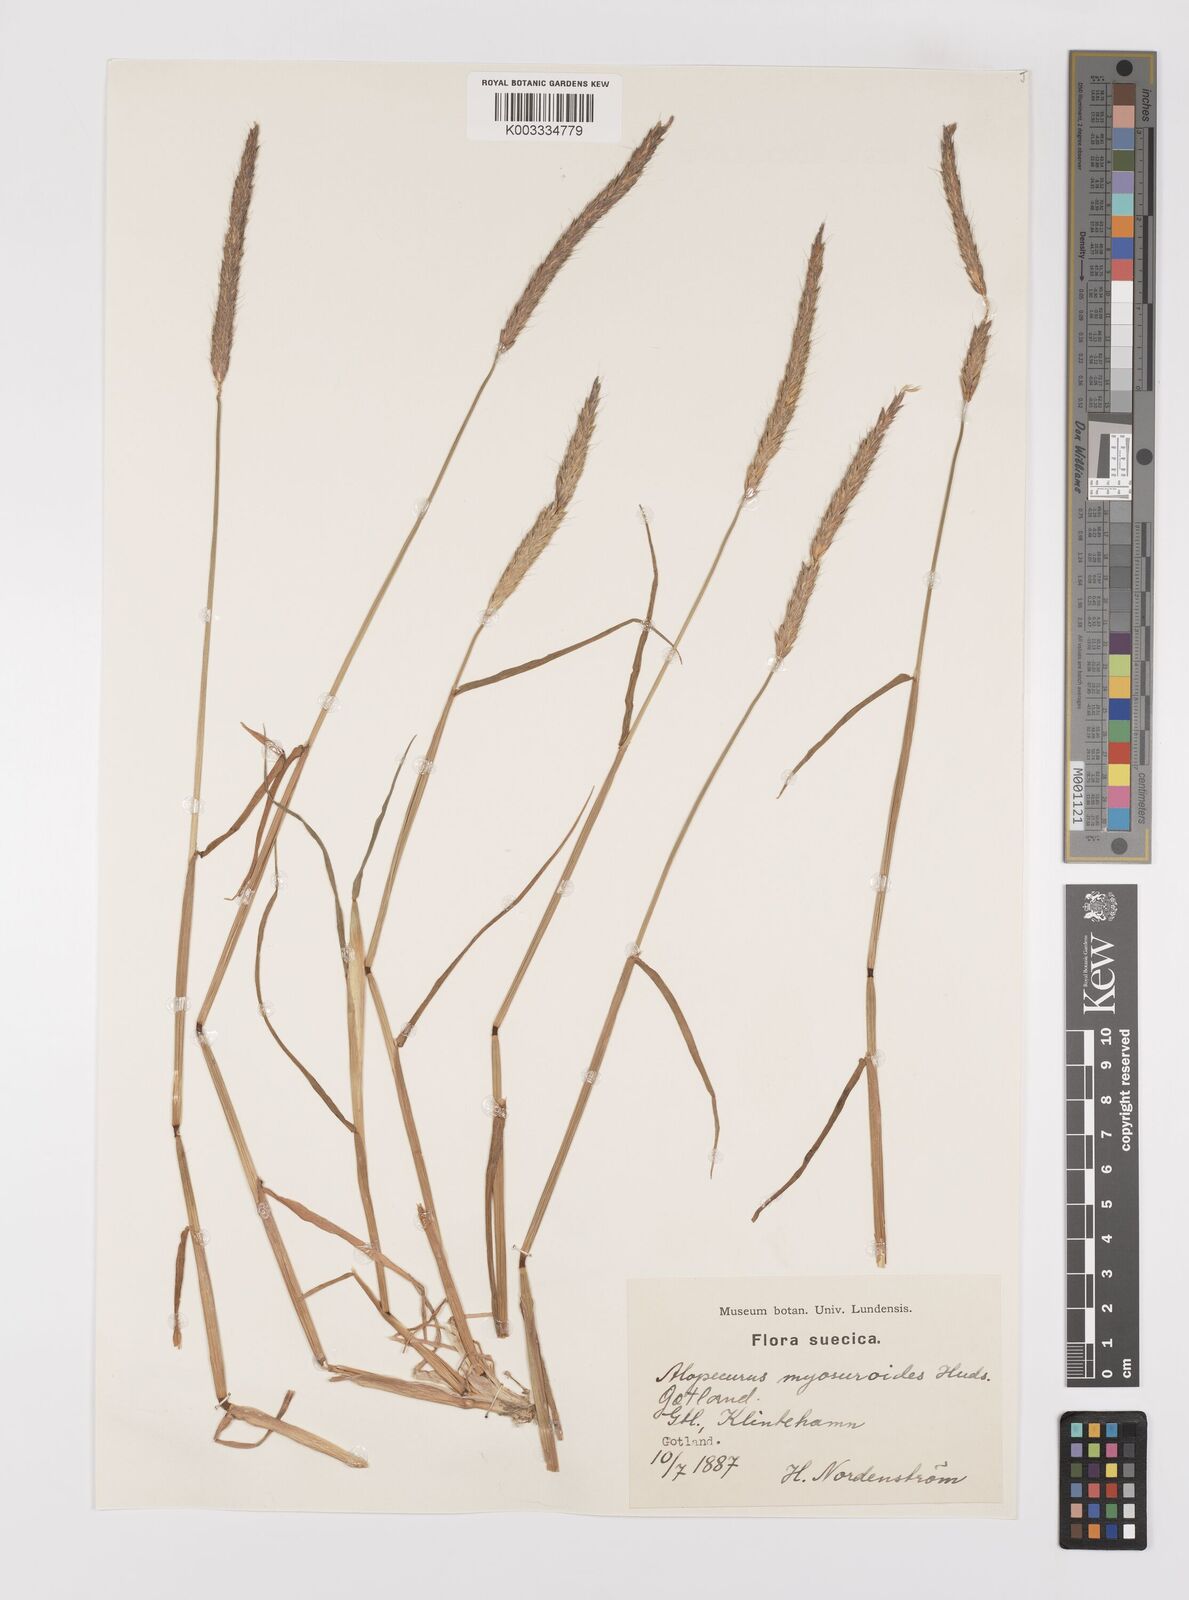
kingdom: Plantae
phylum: Tracheophyta
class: Liliopsida
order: Poales
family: Poaceae
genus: Alopecurus
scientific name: Alopecurus myosuroides
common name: Black-grass
